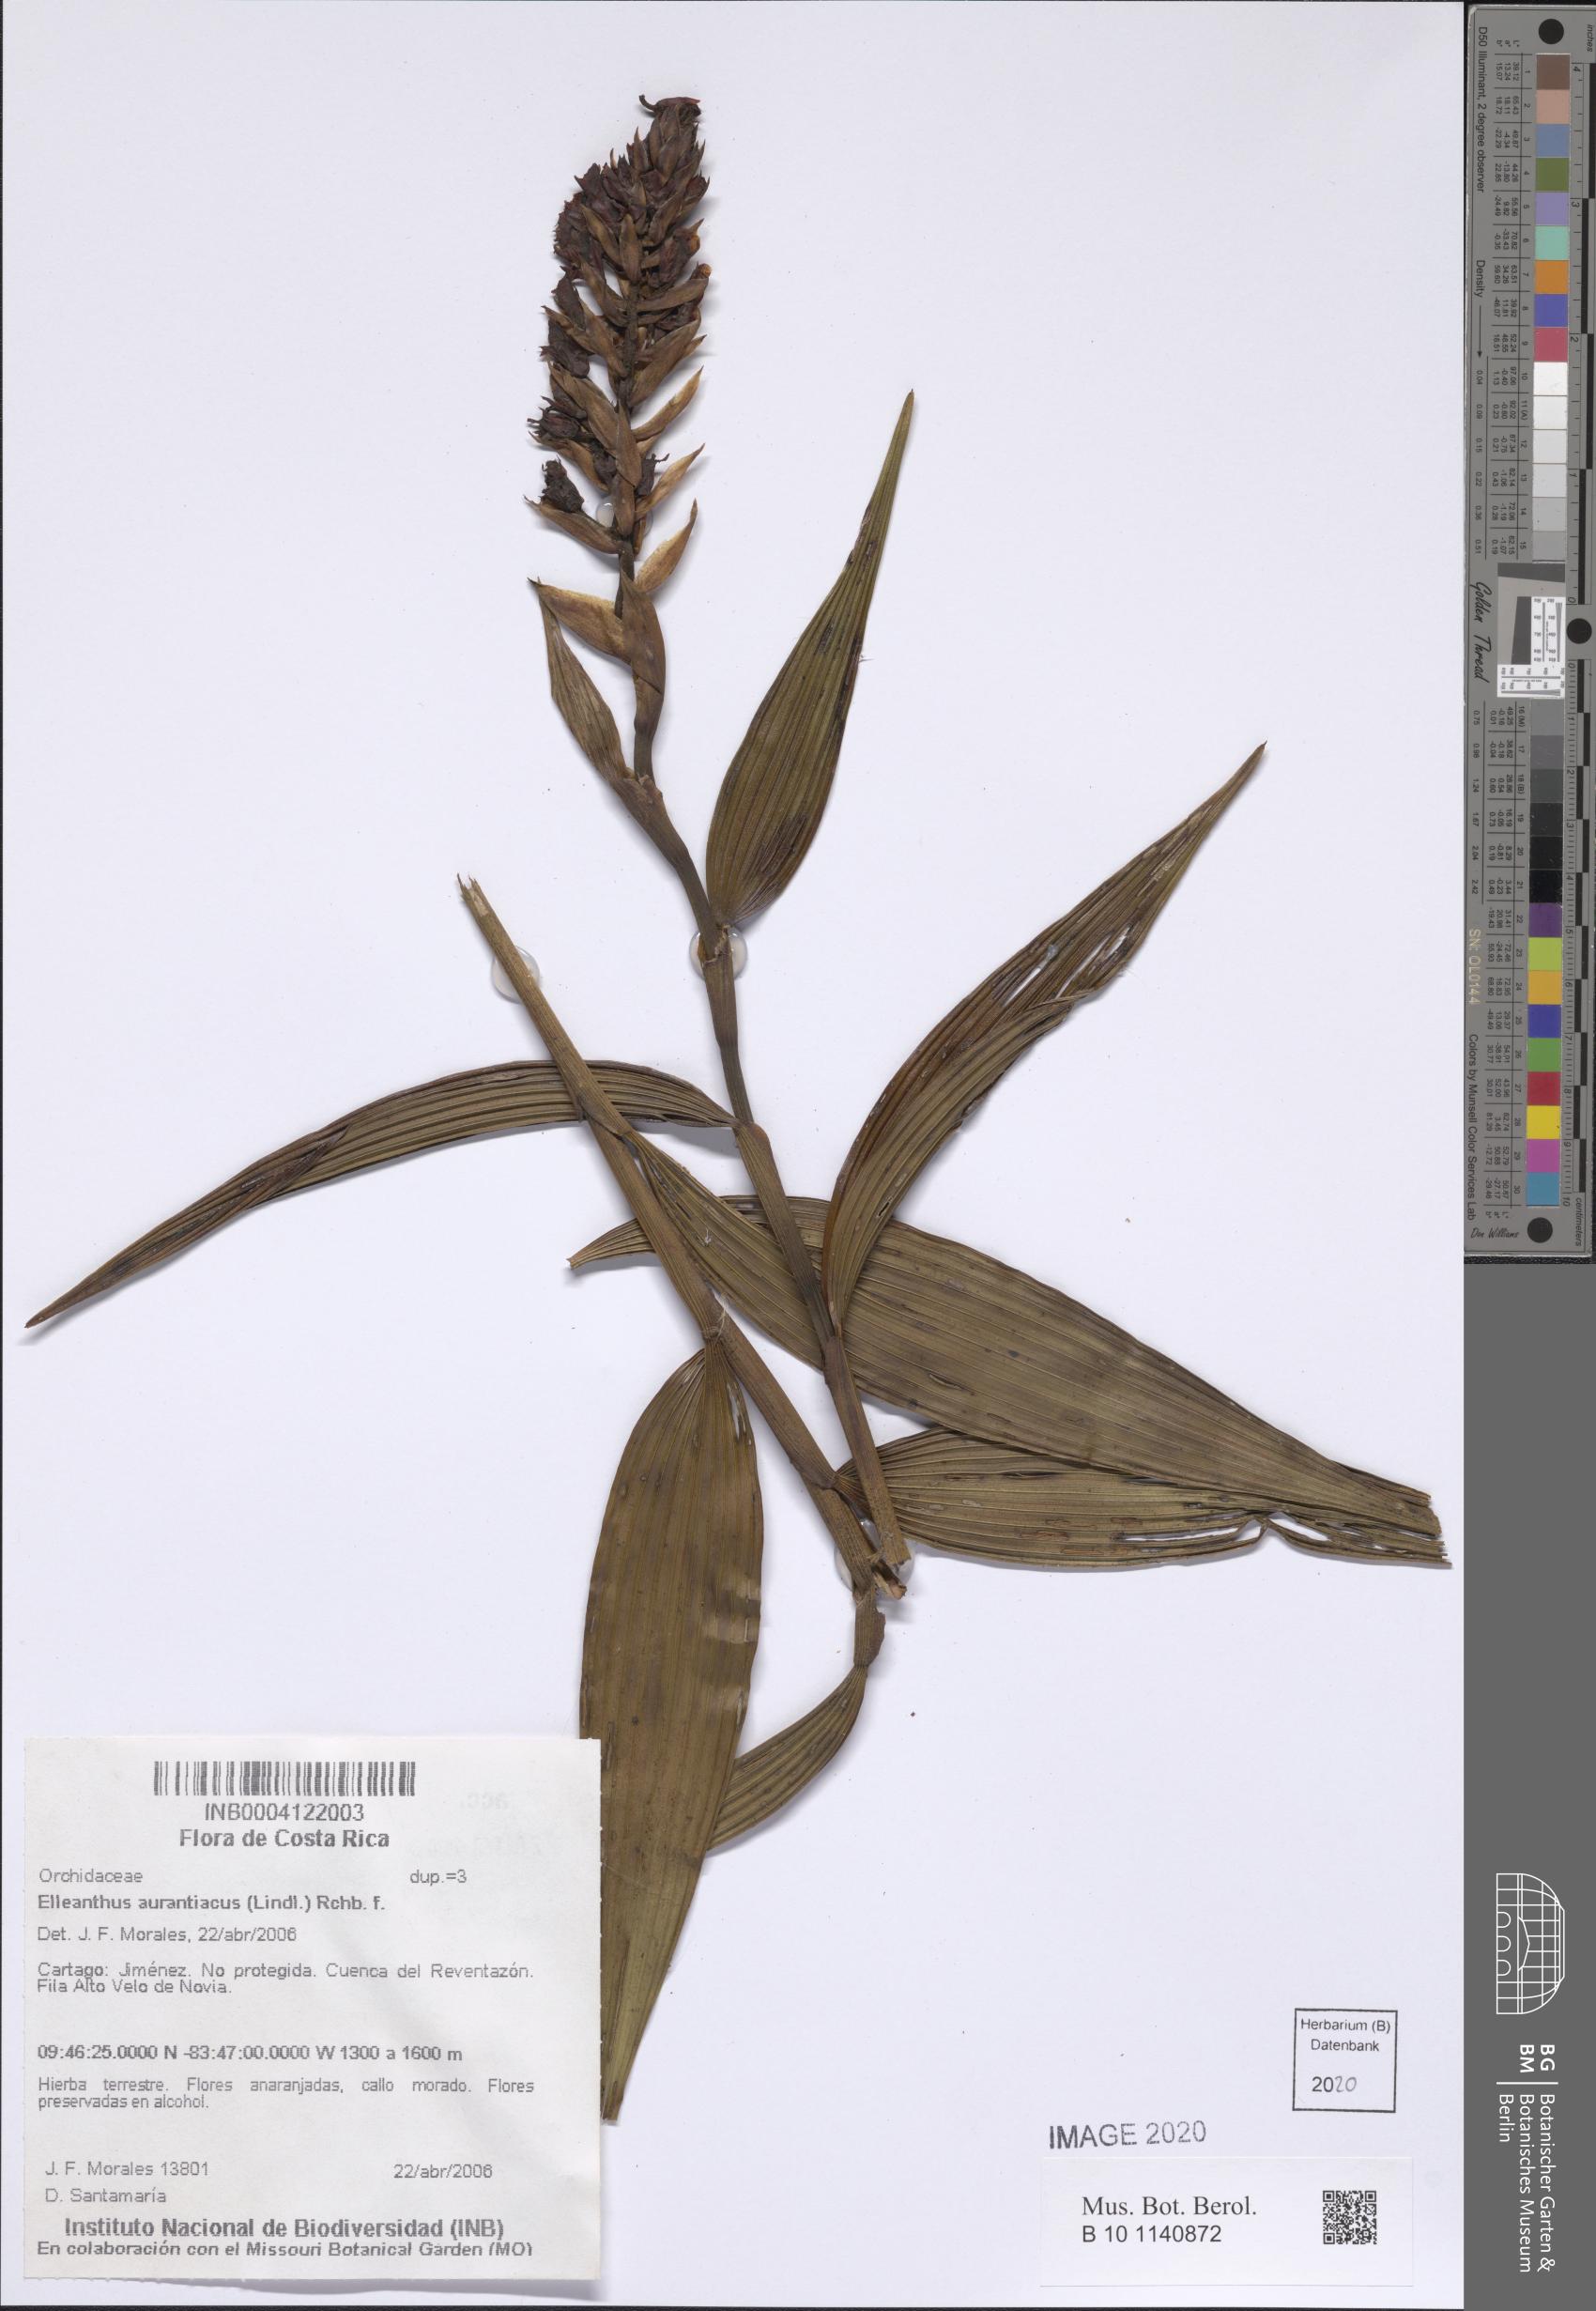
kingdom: Plantae
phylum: Tracheophyta
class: Liliopsida
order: Asparagales
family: Orchidaceae
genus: Elleanthus
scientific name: Elleanthus aurantiacus
